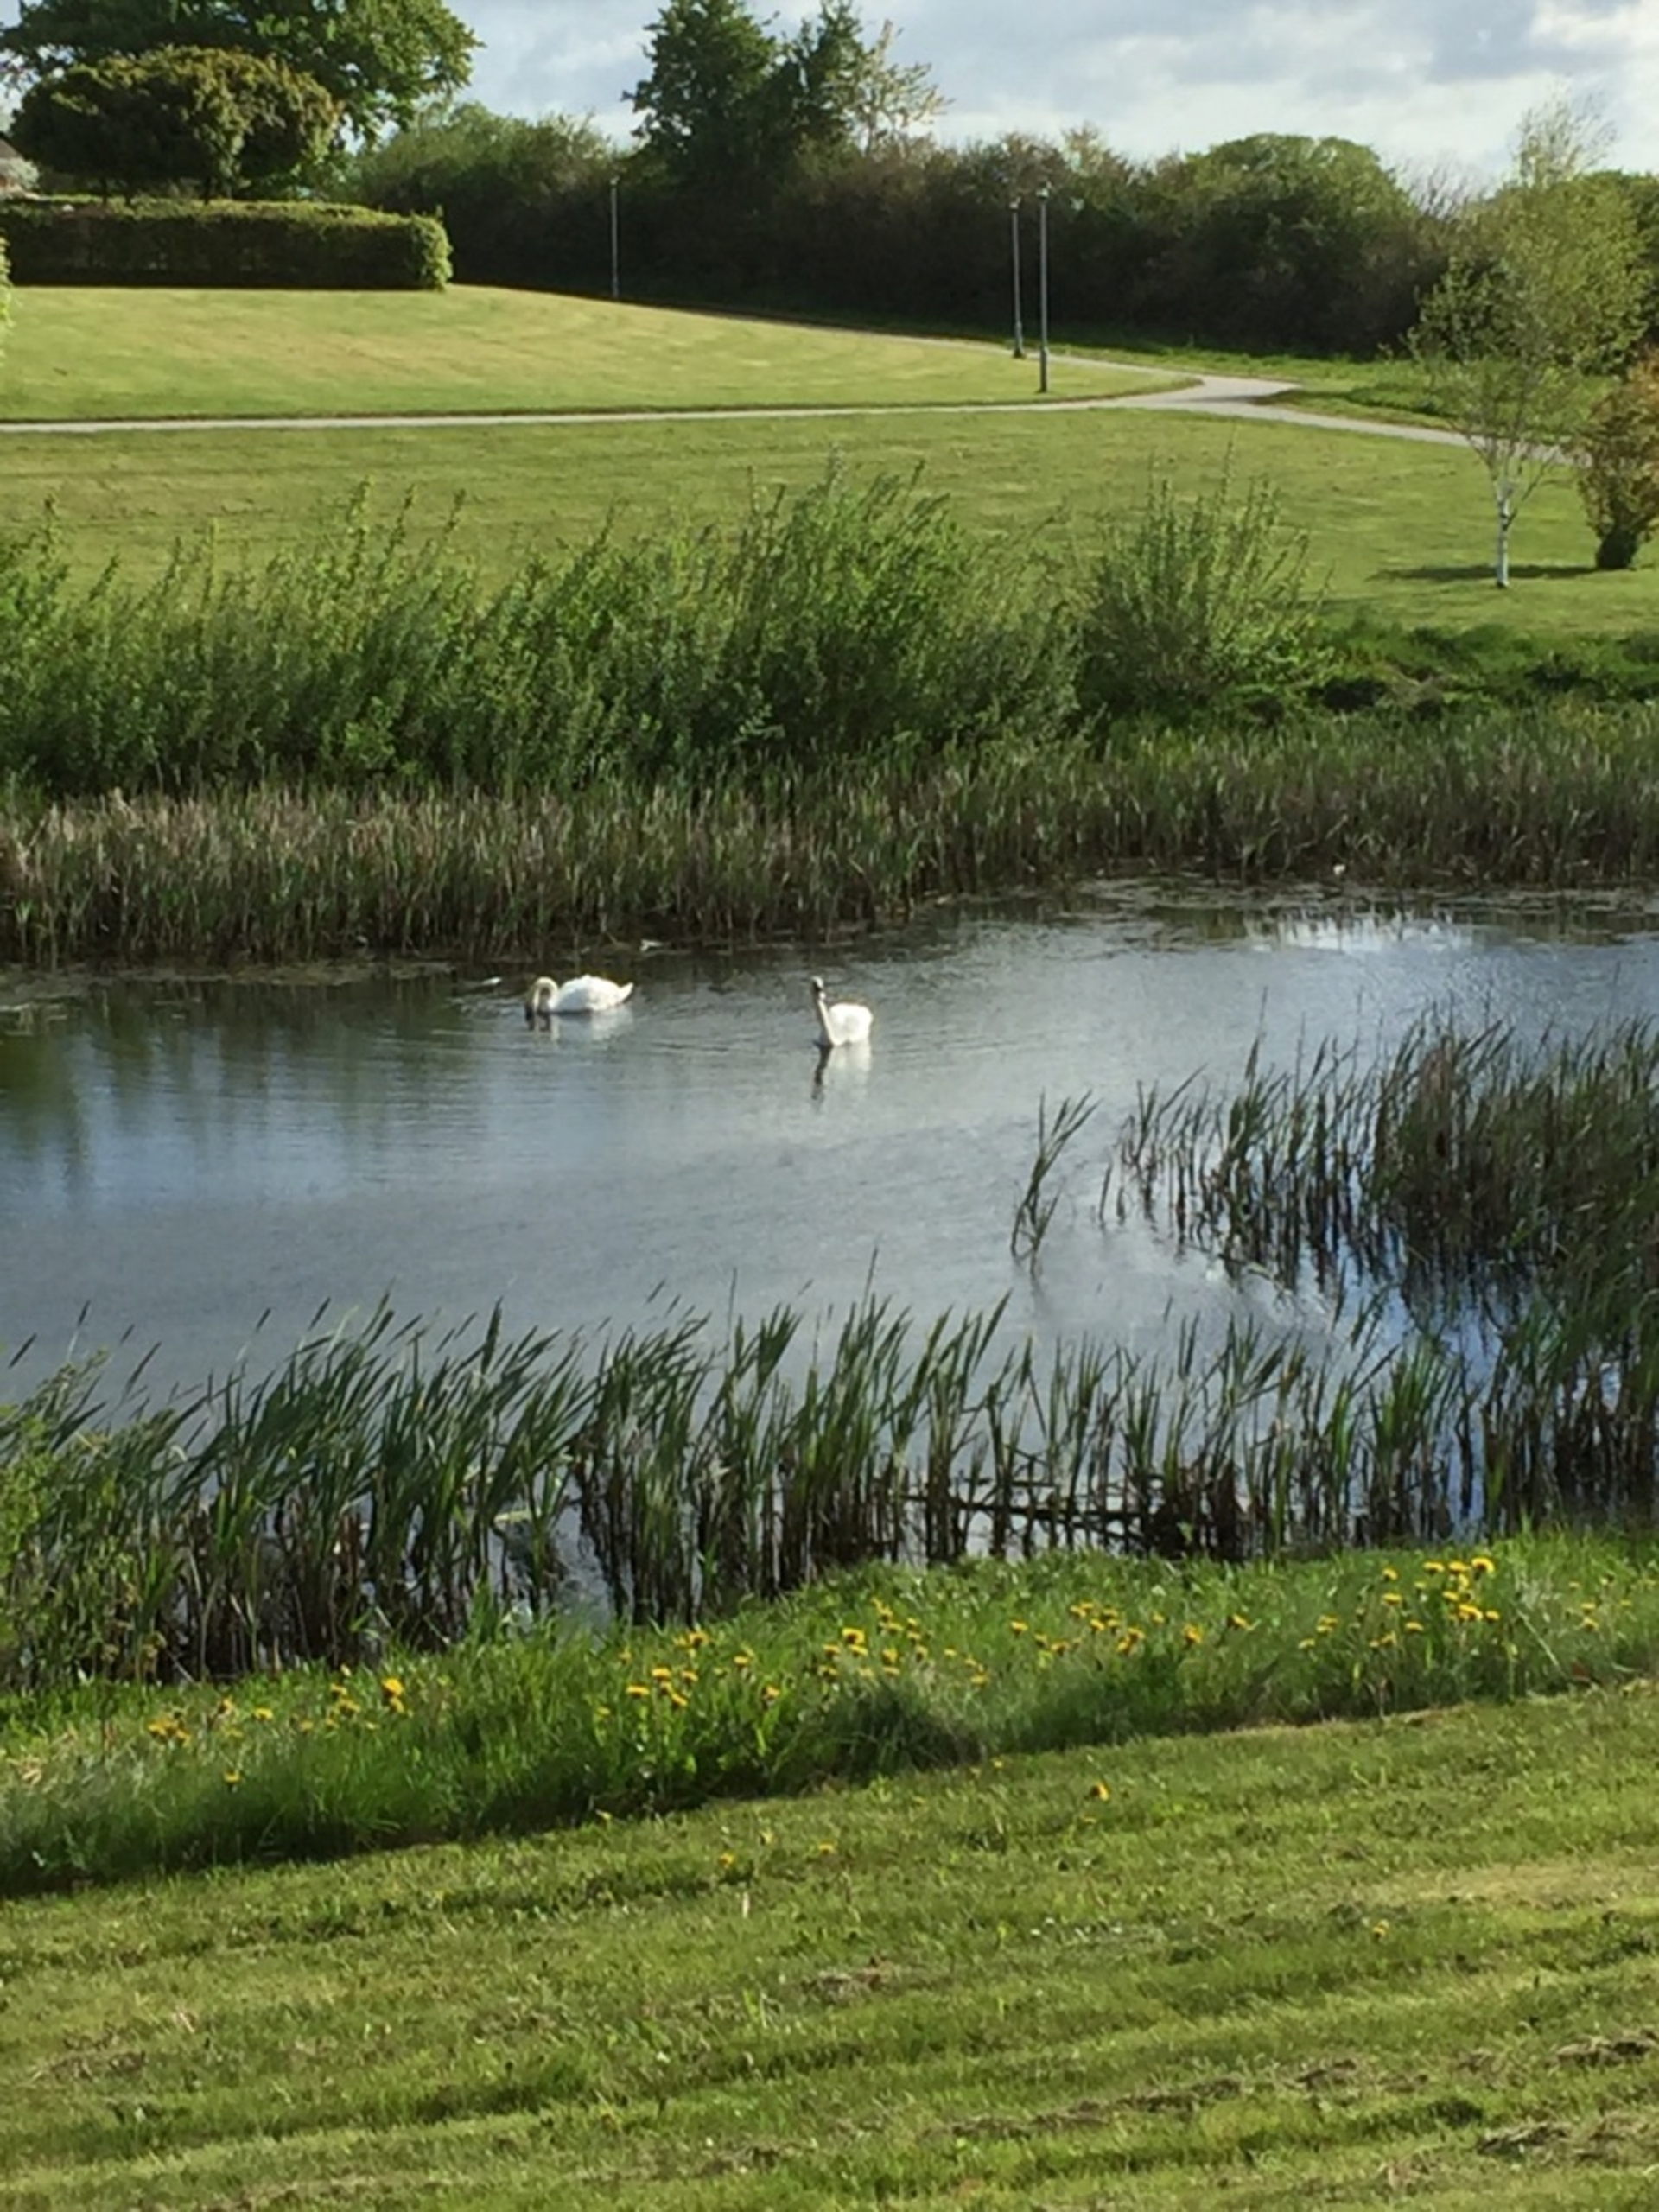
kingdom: Animalia
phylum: Chordata
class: Aves
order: Anseriformes
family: Anatidae
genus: Cygnus
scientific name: Cygnus olor
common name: Knopsvane
